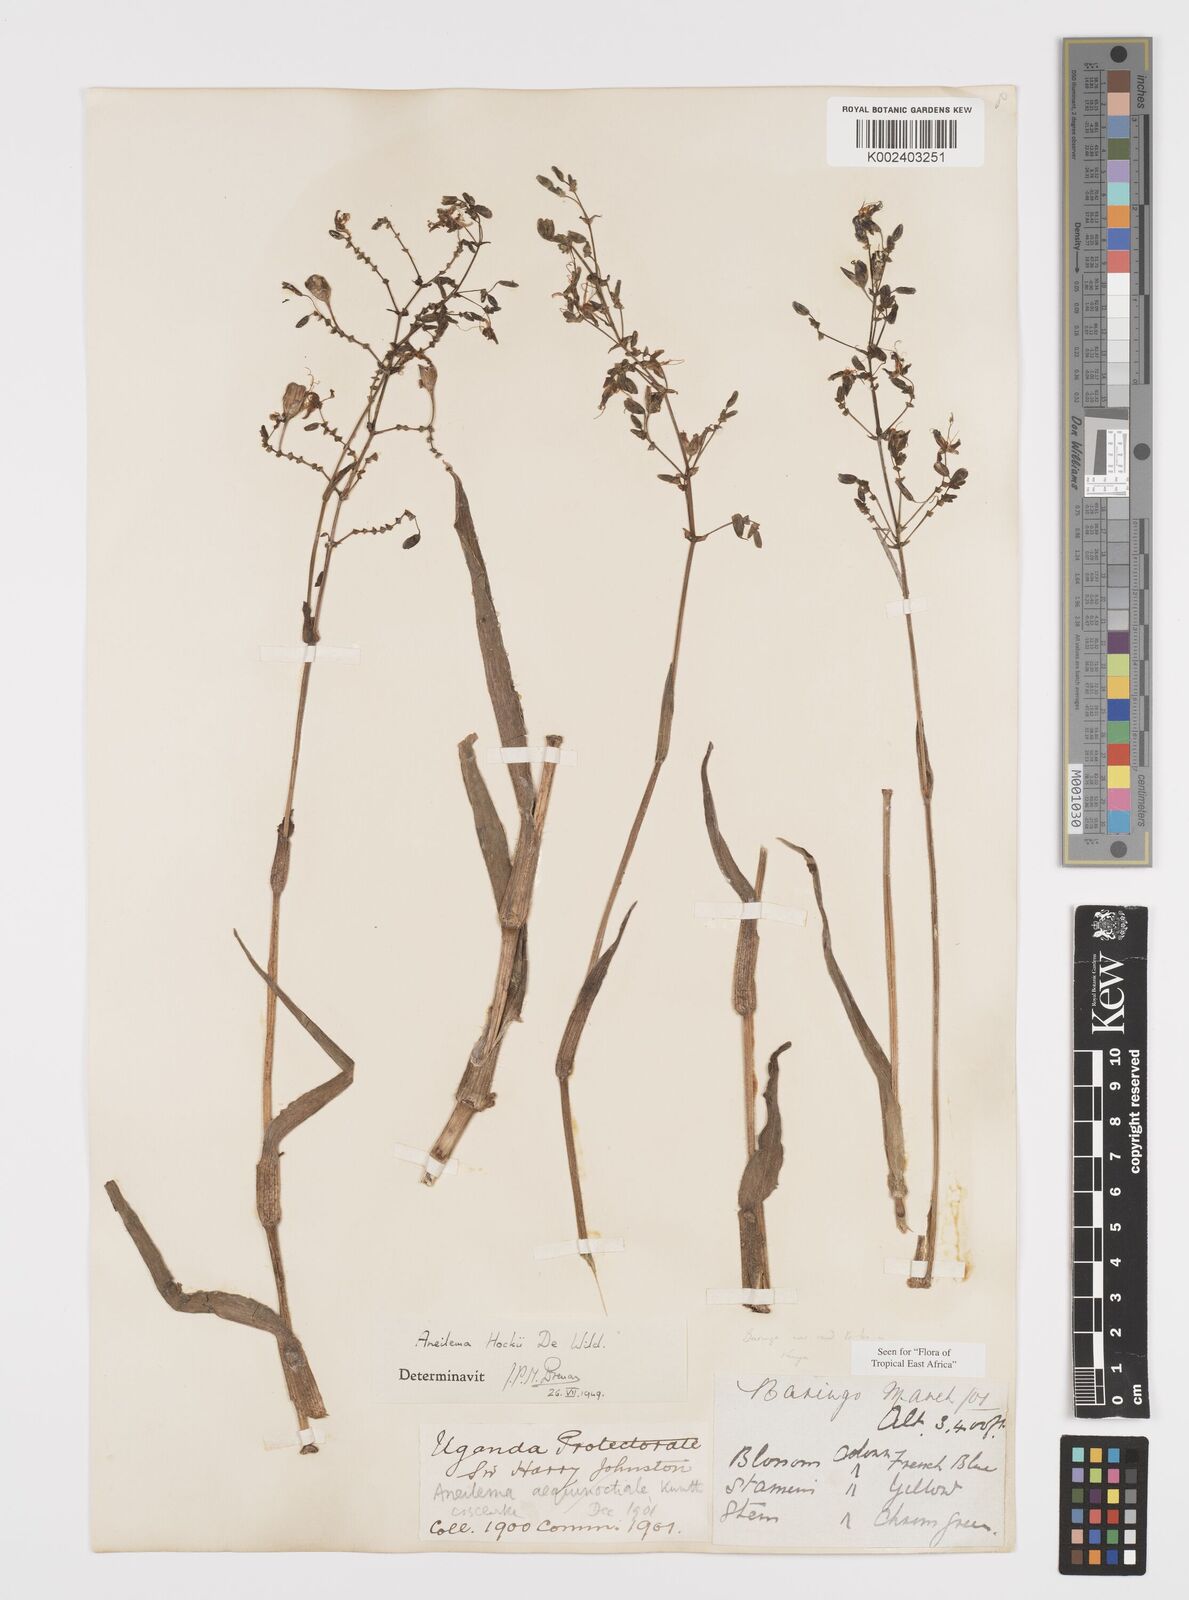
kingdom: Plantae
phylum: Tracheophyta
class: Liliopsida
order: Commelinales
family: Commelinaceae
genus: Aneilema
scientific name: Aneilema hockii
